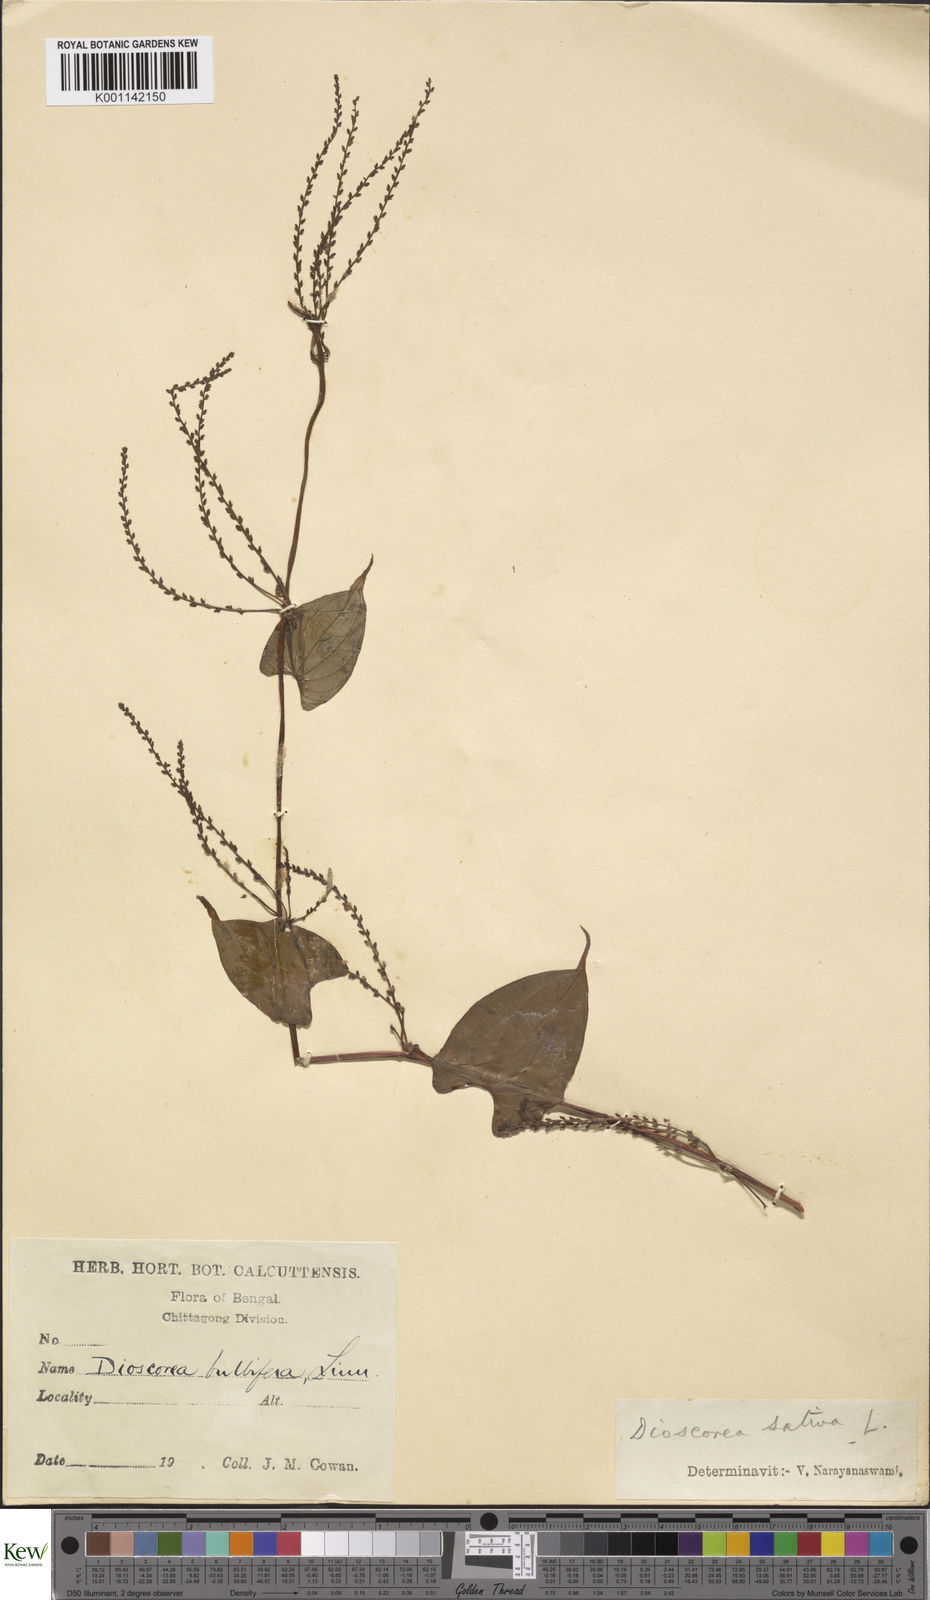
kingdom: Plantae
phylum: Tracheophyta
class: Liliopsida
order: Dioscoreales
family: Dioscoreaceae
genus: Dioscorea
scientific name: Dioscorea bulbifera
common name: Air yam
